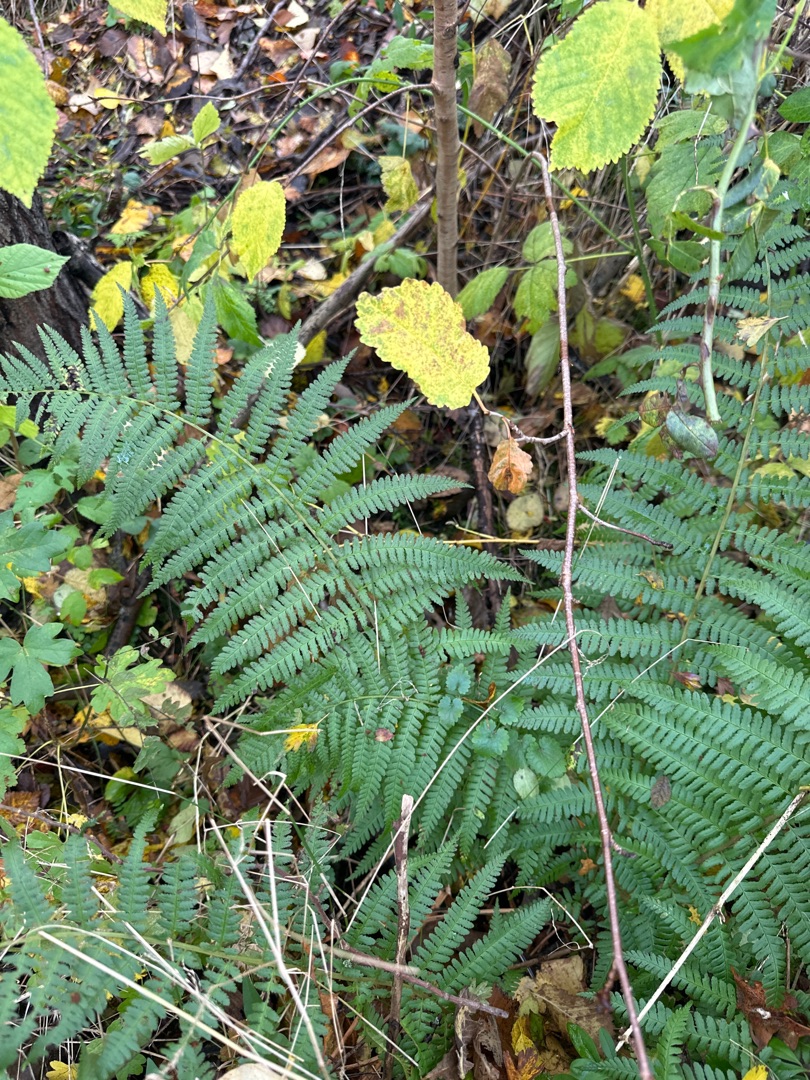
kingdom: Plantae
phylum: Tracheophyta
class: Polypodiopsida
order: Polypodiales
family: Dryopteridaceae
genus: Dryopteris
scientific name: Dryopteris filix-mas
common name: Almindelig mangeløv
